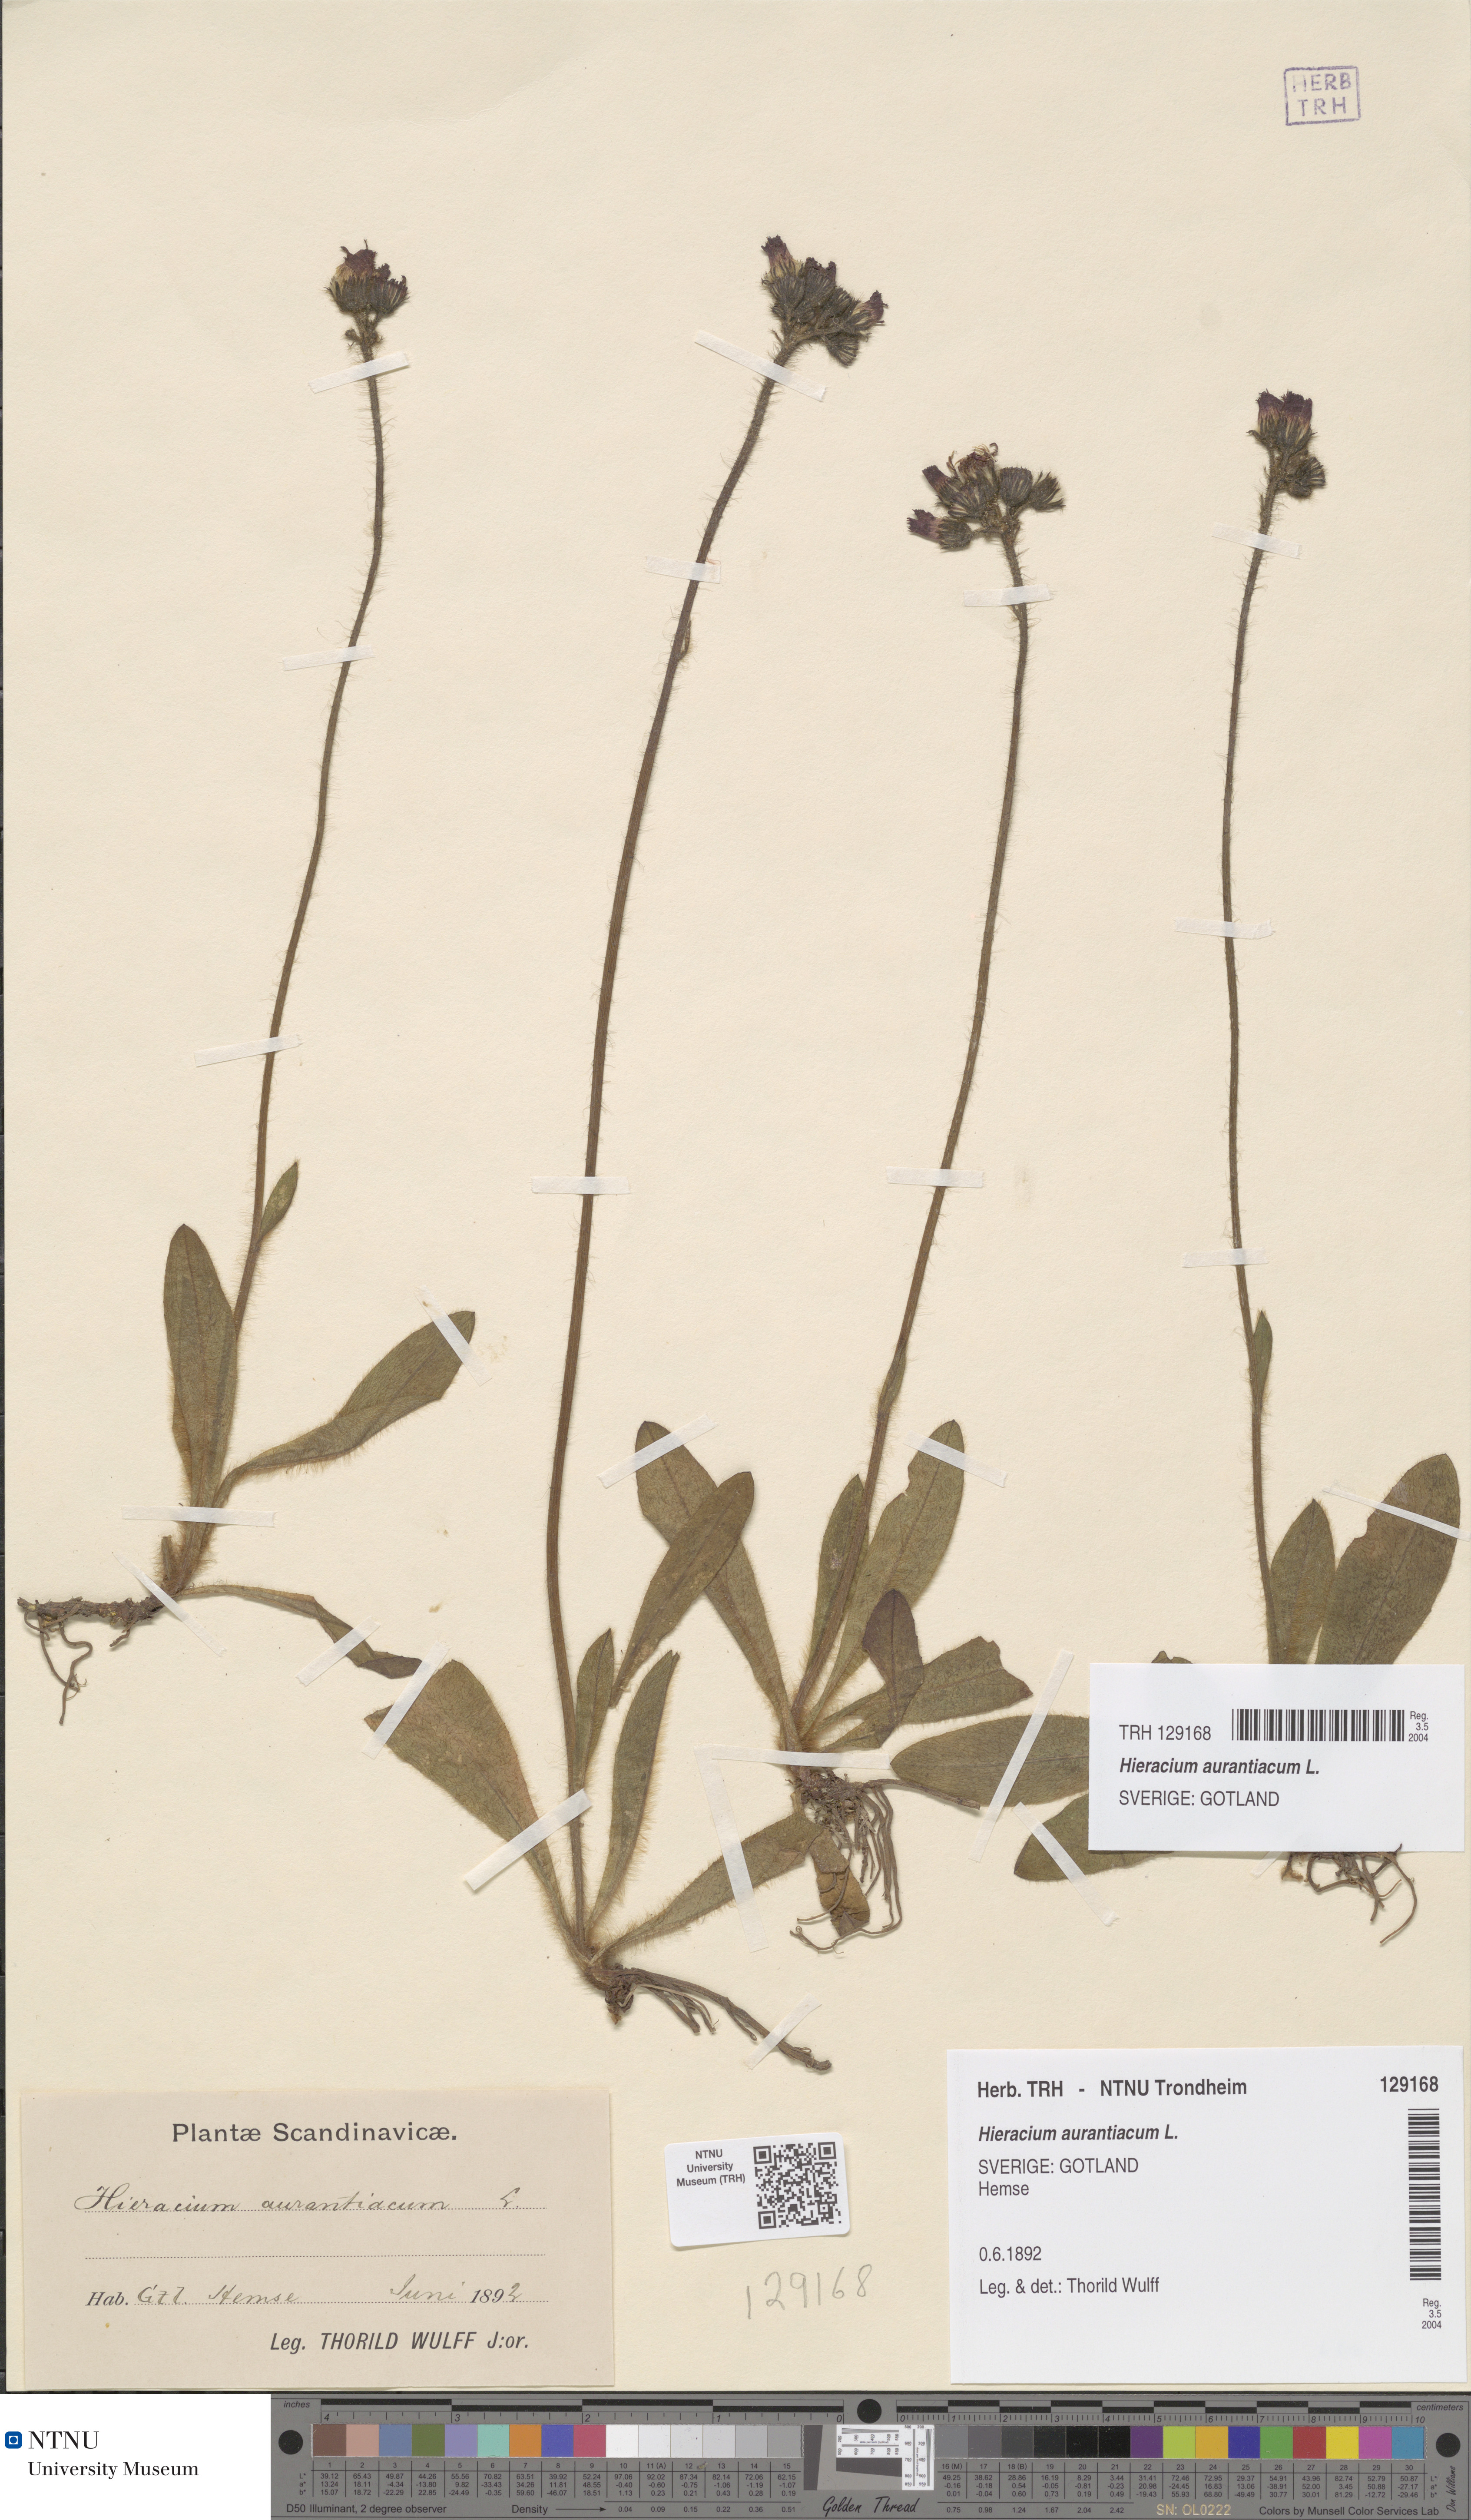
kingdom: Plantae
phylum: Tracheophyta
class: Magnoliopsida
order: Asterales
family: Asteraceae
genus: Pilosella
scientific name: Pilosella aurantiaca
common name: Fox-and-cubs
